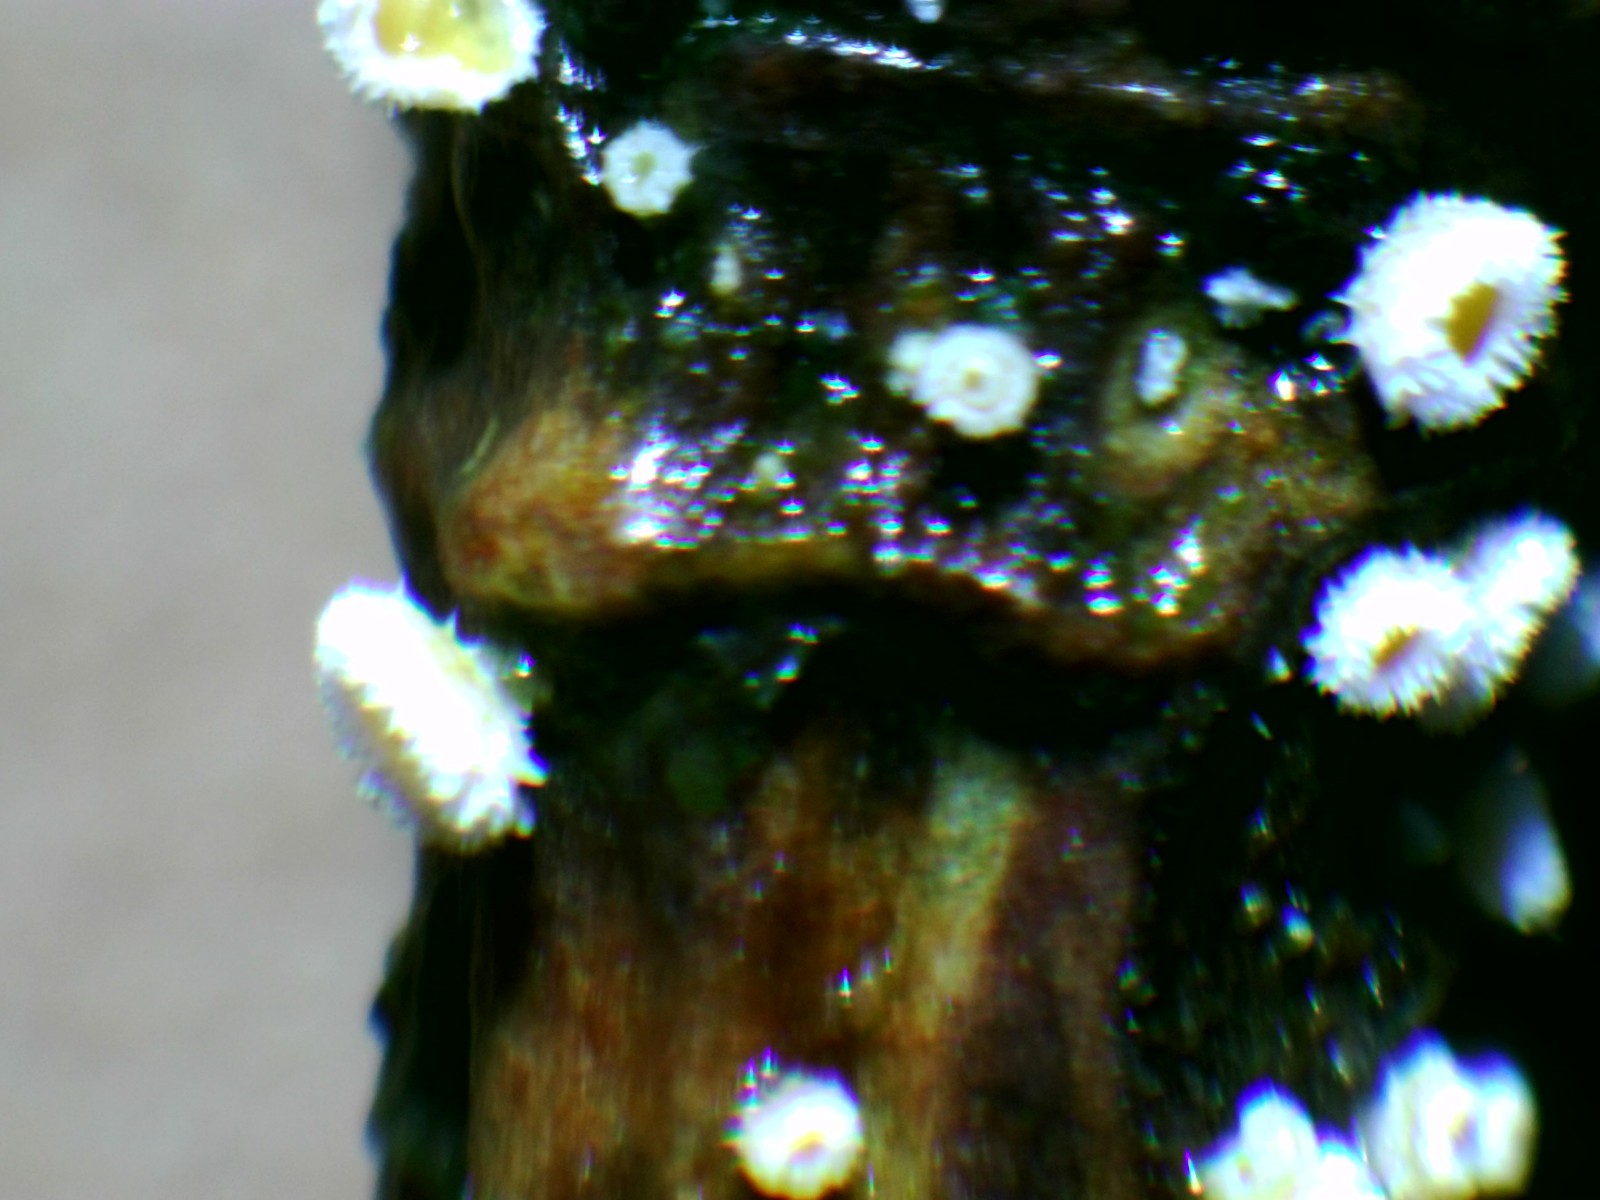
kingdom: Fungi
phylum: Ascomycota
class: Leotiomycetes
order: Helotiales
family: Lachnaceae
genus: Capitotricha
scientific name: Capitotricha bicolor
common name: prægtig frynseskive
